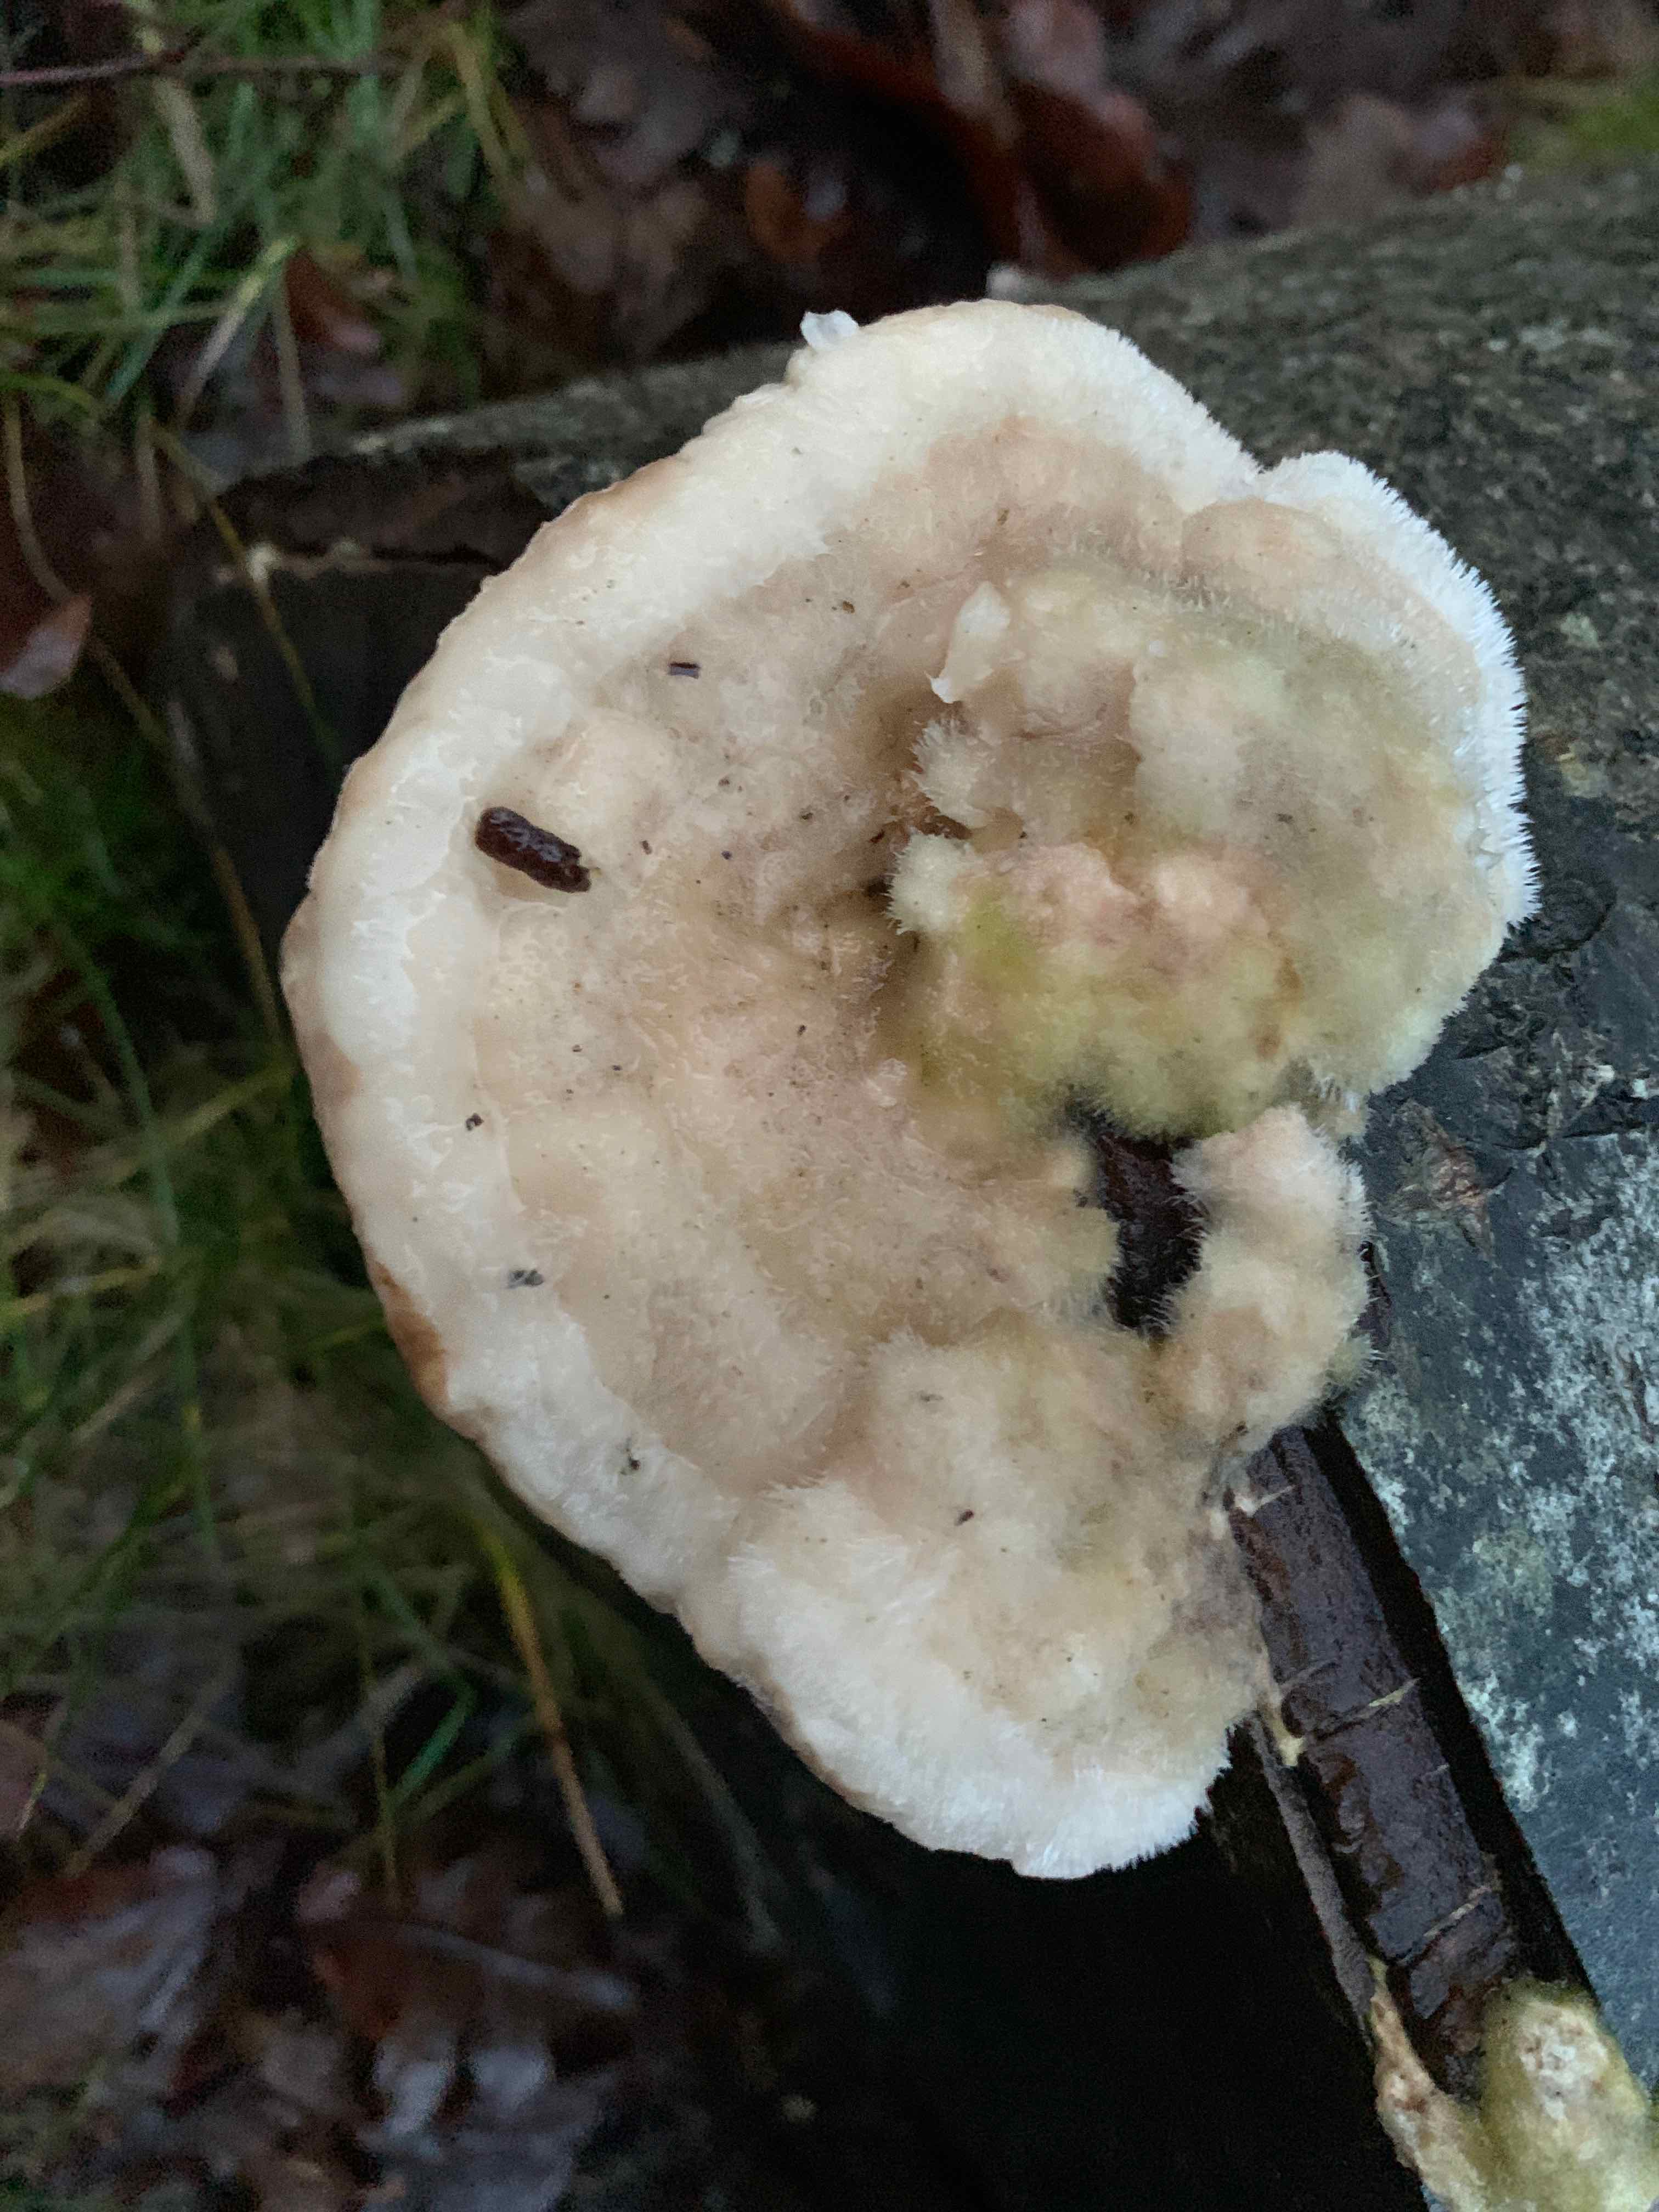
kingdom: Fungi
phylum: Basidiomycota
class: Agaricomycetes
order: Polyporales
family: Polyporaceae
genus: Trametes
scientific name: Trametes hirsuta
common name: håret læderporesvamp
